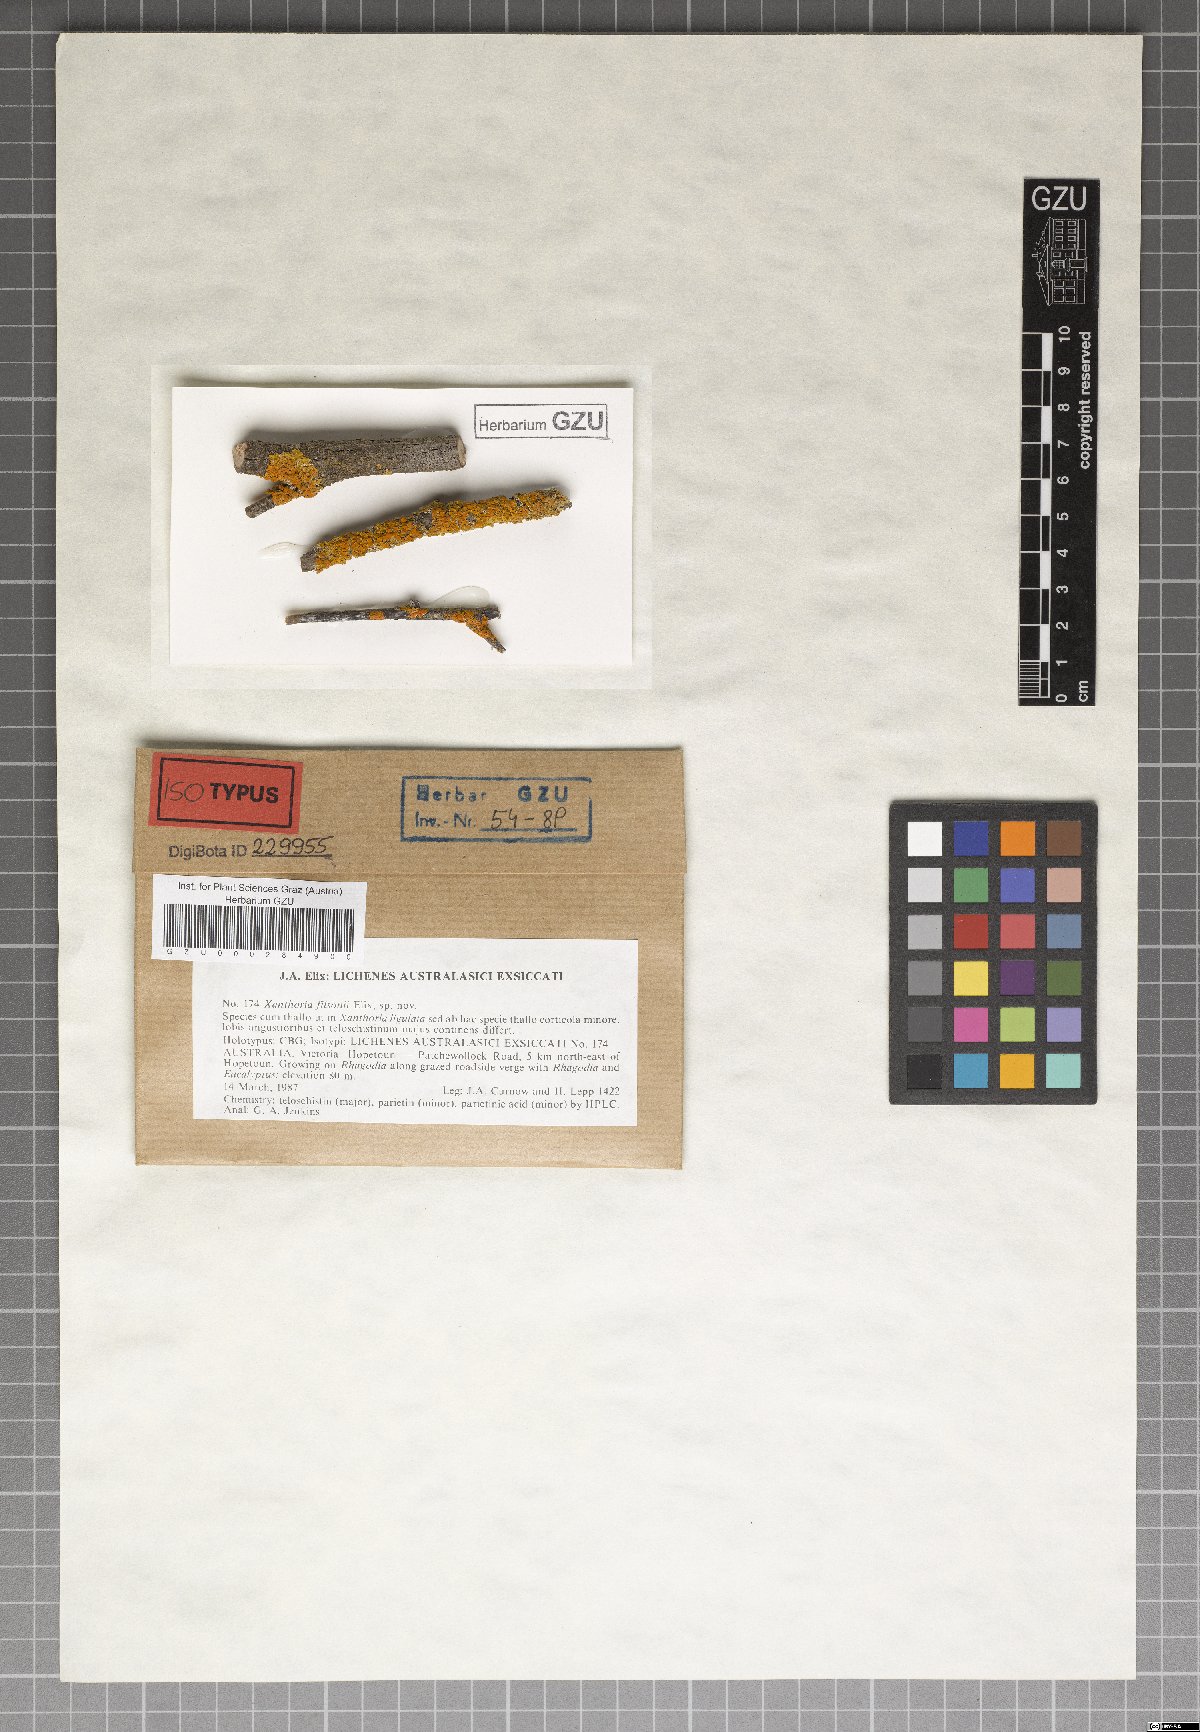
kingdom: Fungi
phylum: Ascomycota
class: Lecanoromycetes
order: Teloschistales
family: Teloschistaceae
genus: Dufourea
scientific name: Dufourea filsonii
